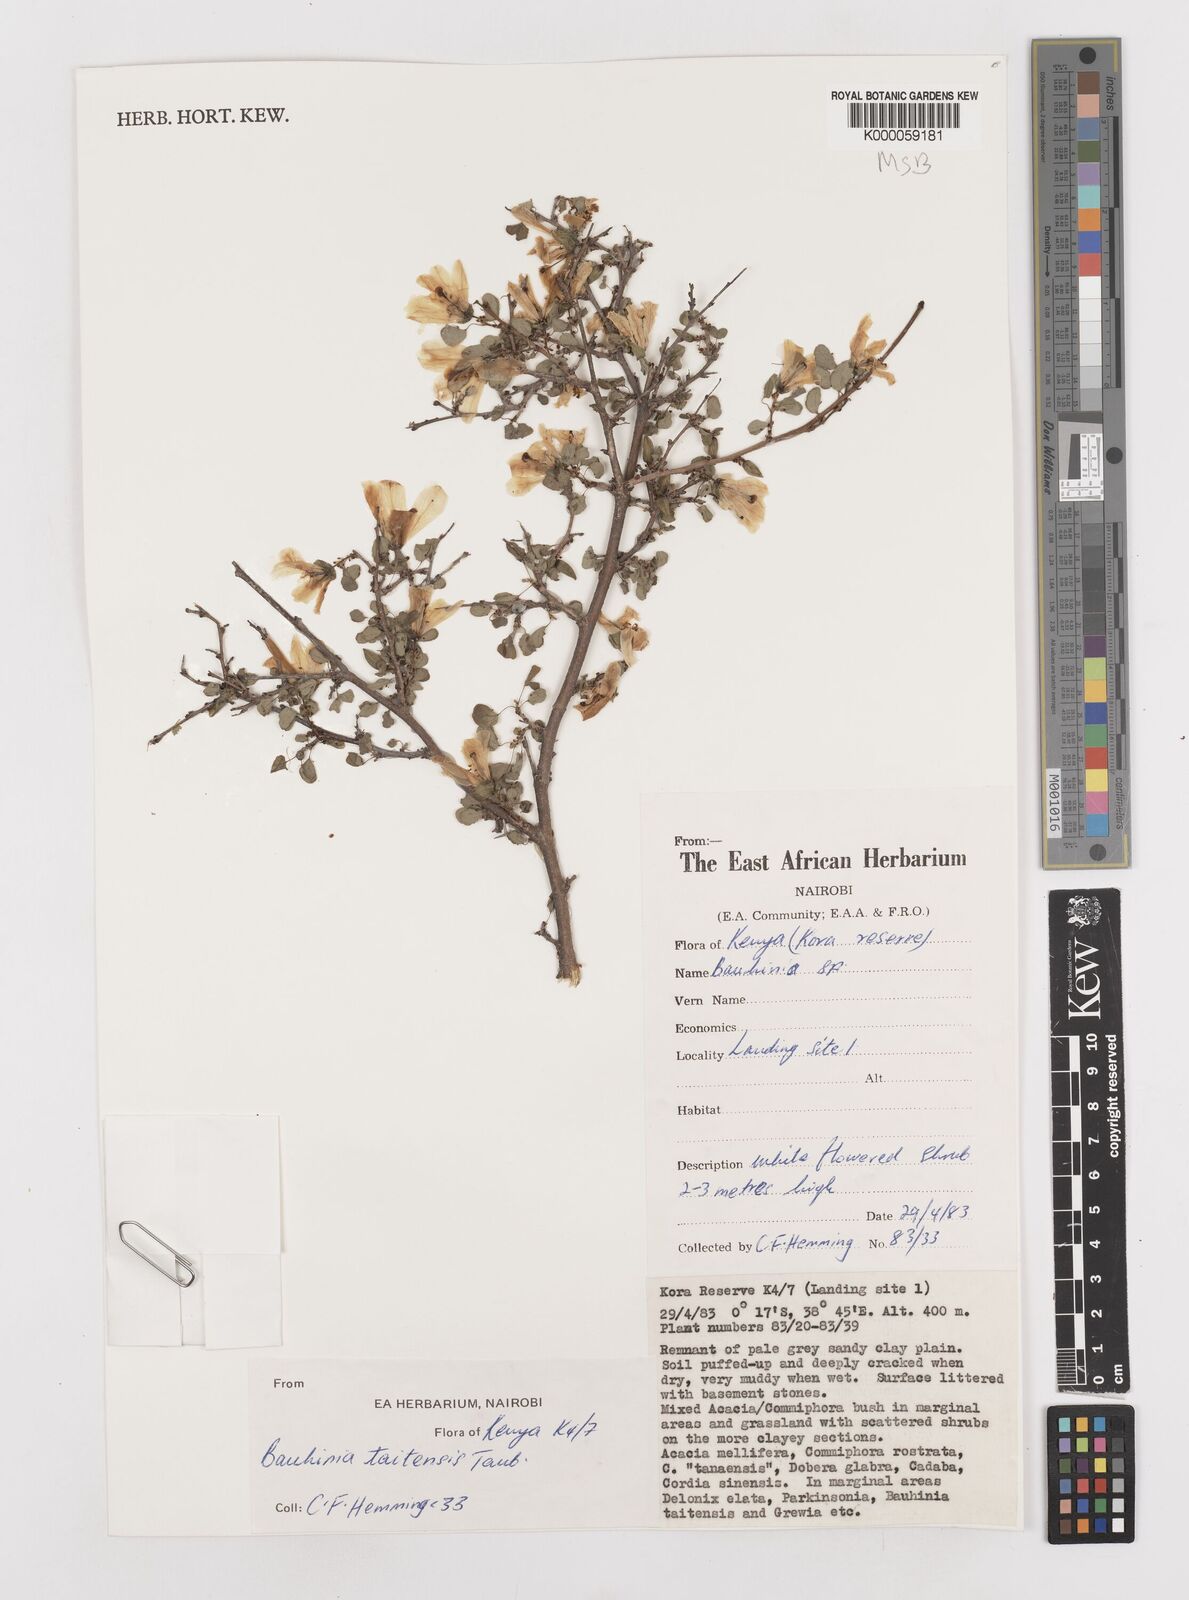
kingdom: Plantae
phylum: Tracheophyta
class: Magnoliopsida
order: Fabales
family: Fabaceae
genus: Bauhinia
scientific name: Bauhinia taitensis
